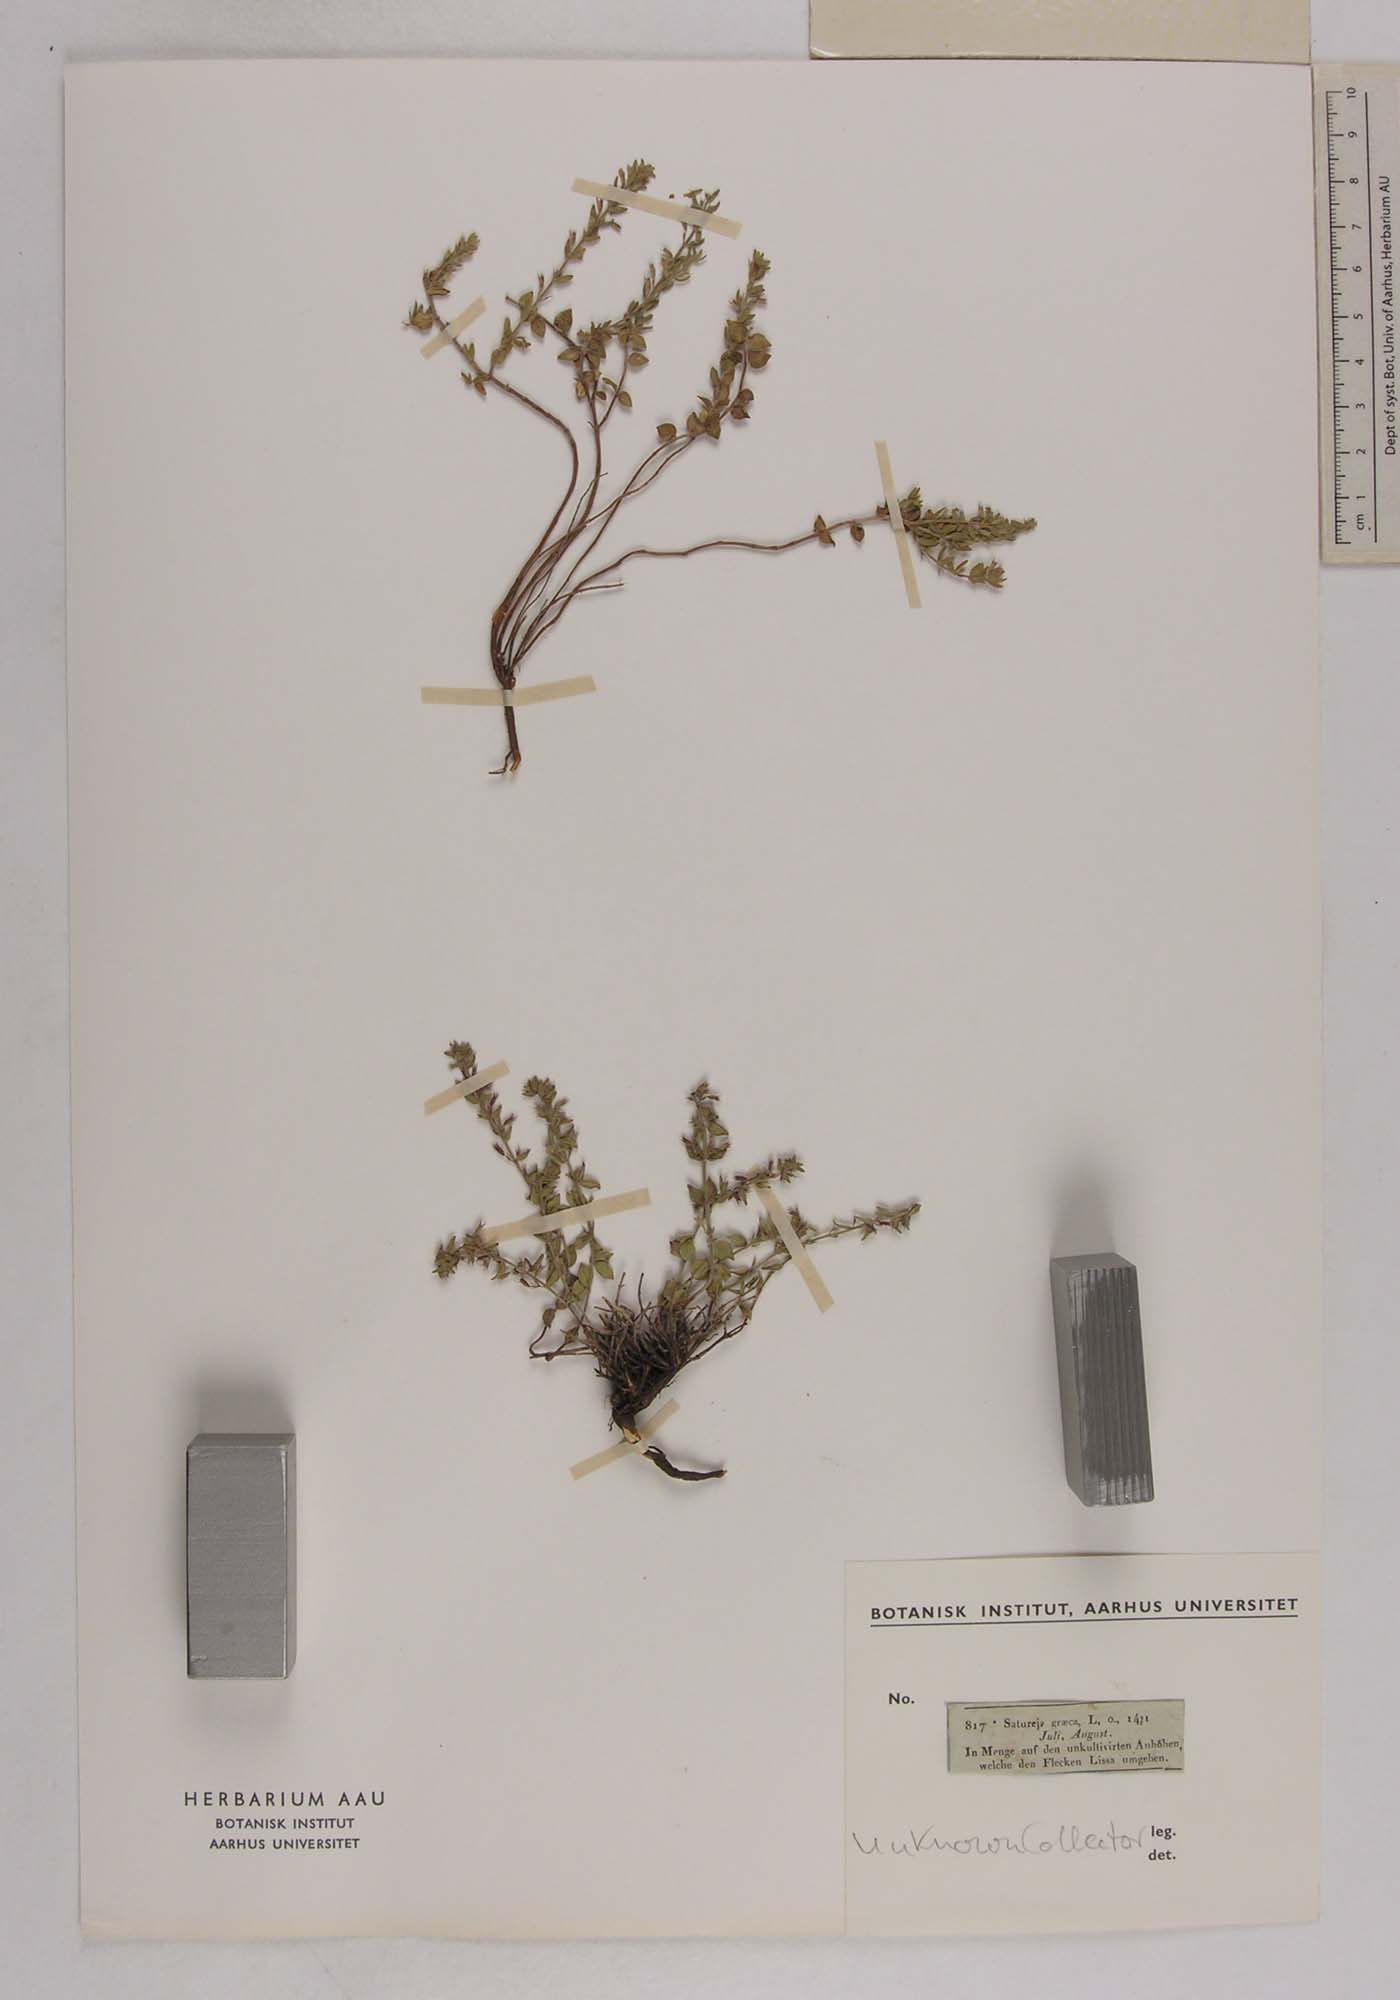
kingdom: Plantae
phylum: Tracheophyta
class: Magnoliopsida
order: Lamiales
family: Lamiaceae
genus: Micromeria
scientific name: Micromeria graeca
